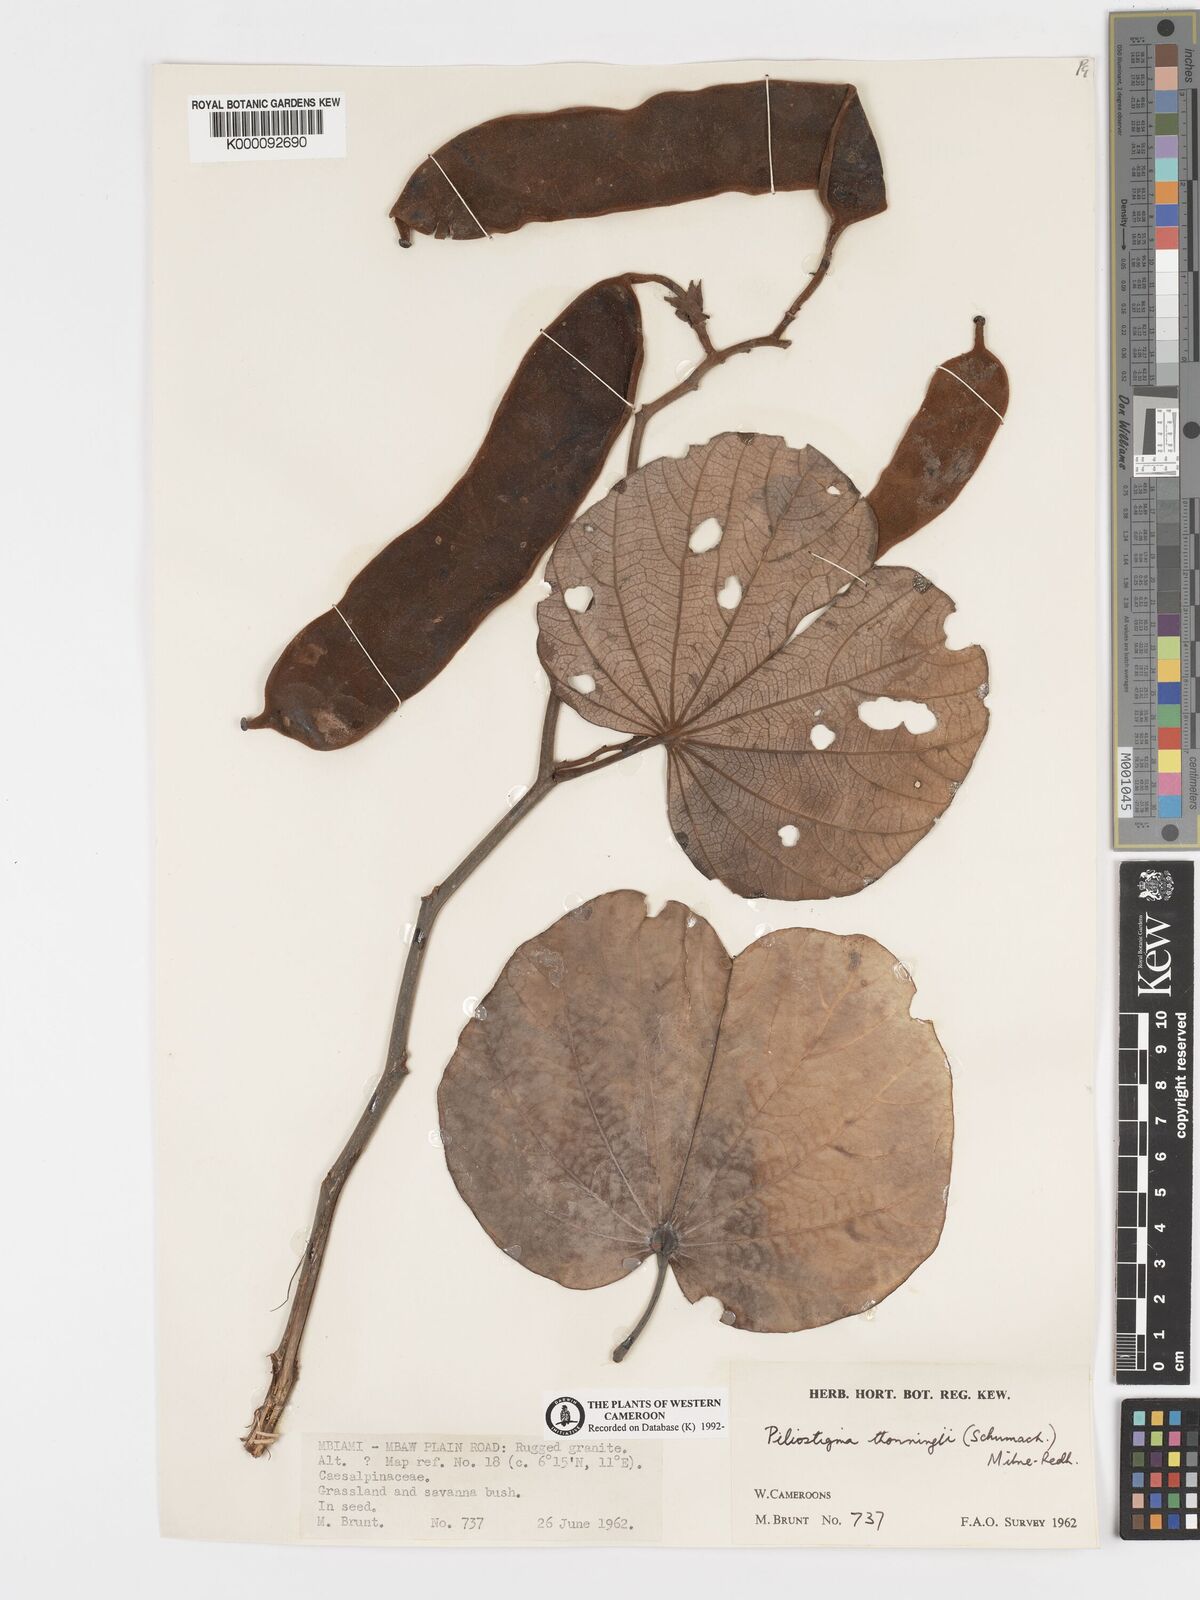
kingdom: Plantae
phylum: Tracheophyta
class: Magnoliopsida
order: Fabales
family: Fabaceae
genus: Piliostigma
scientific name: Piliostigma thonningii
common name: Kao
